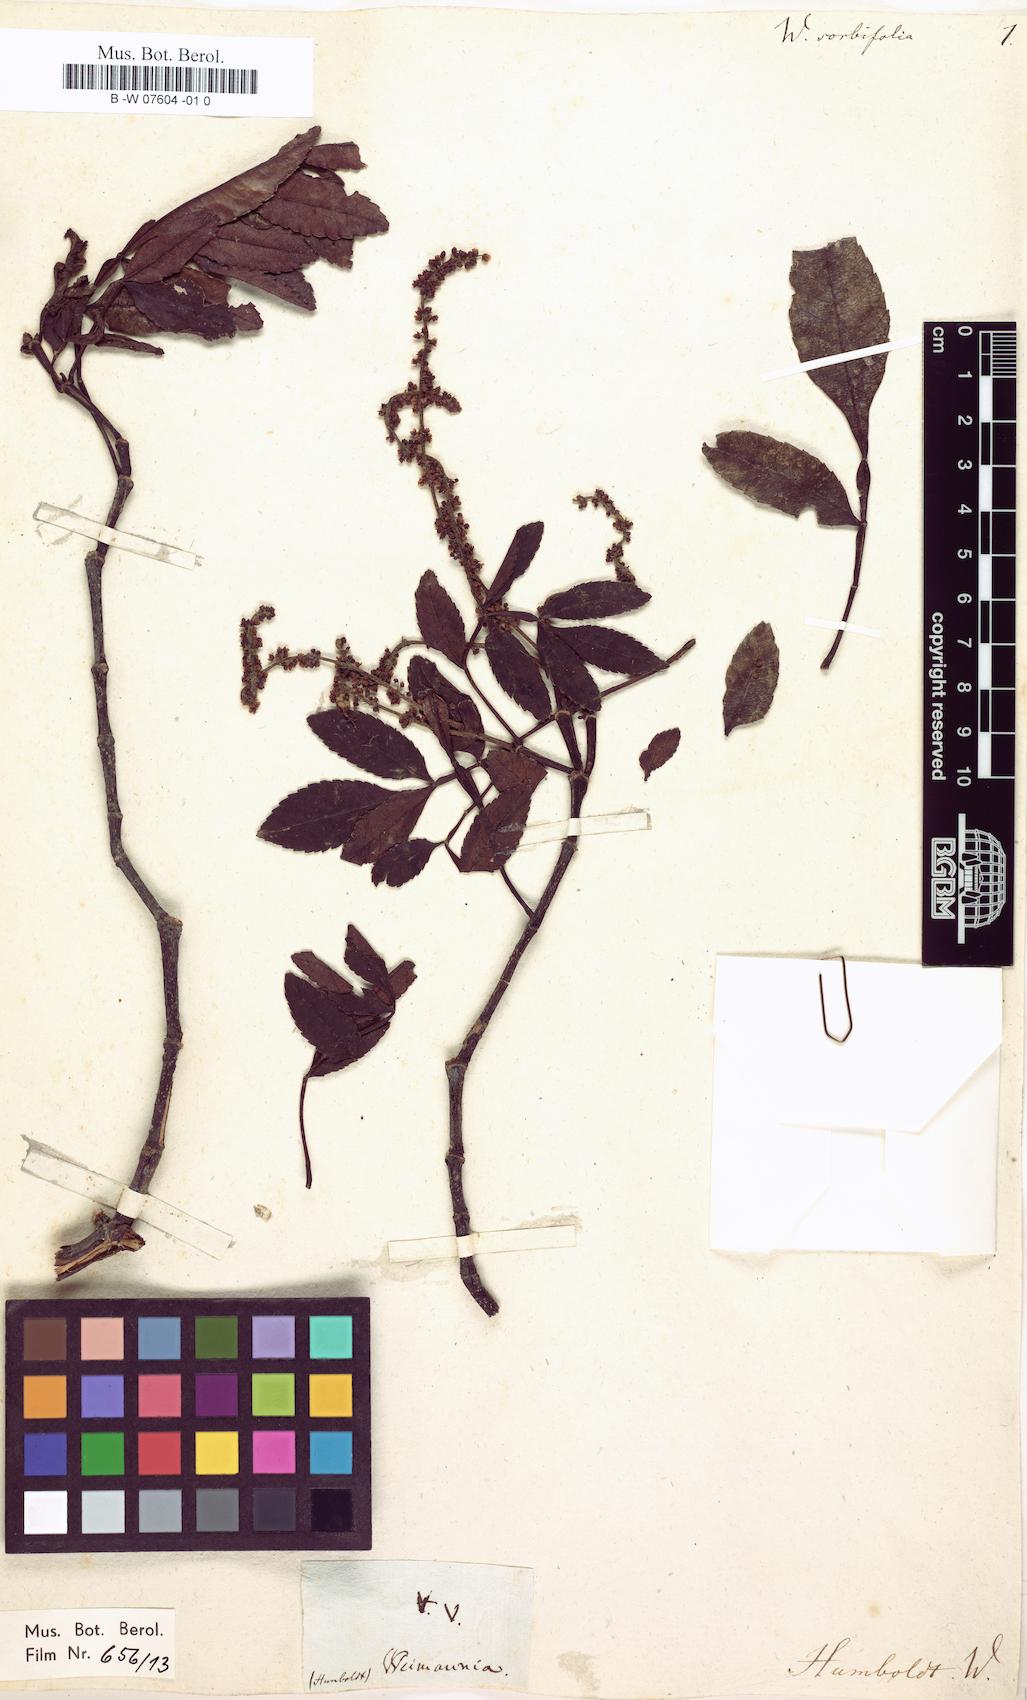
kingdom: Plantae
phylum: Tracheophyta
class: Magnoliopsida
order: Oxalidales
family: Cunoniaceae
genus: Weinmannia
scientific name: Weinmannia sorbifolia
